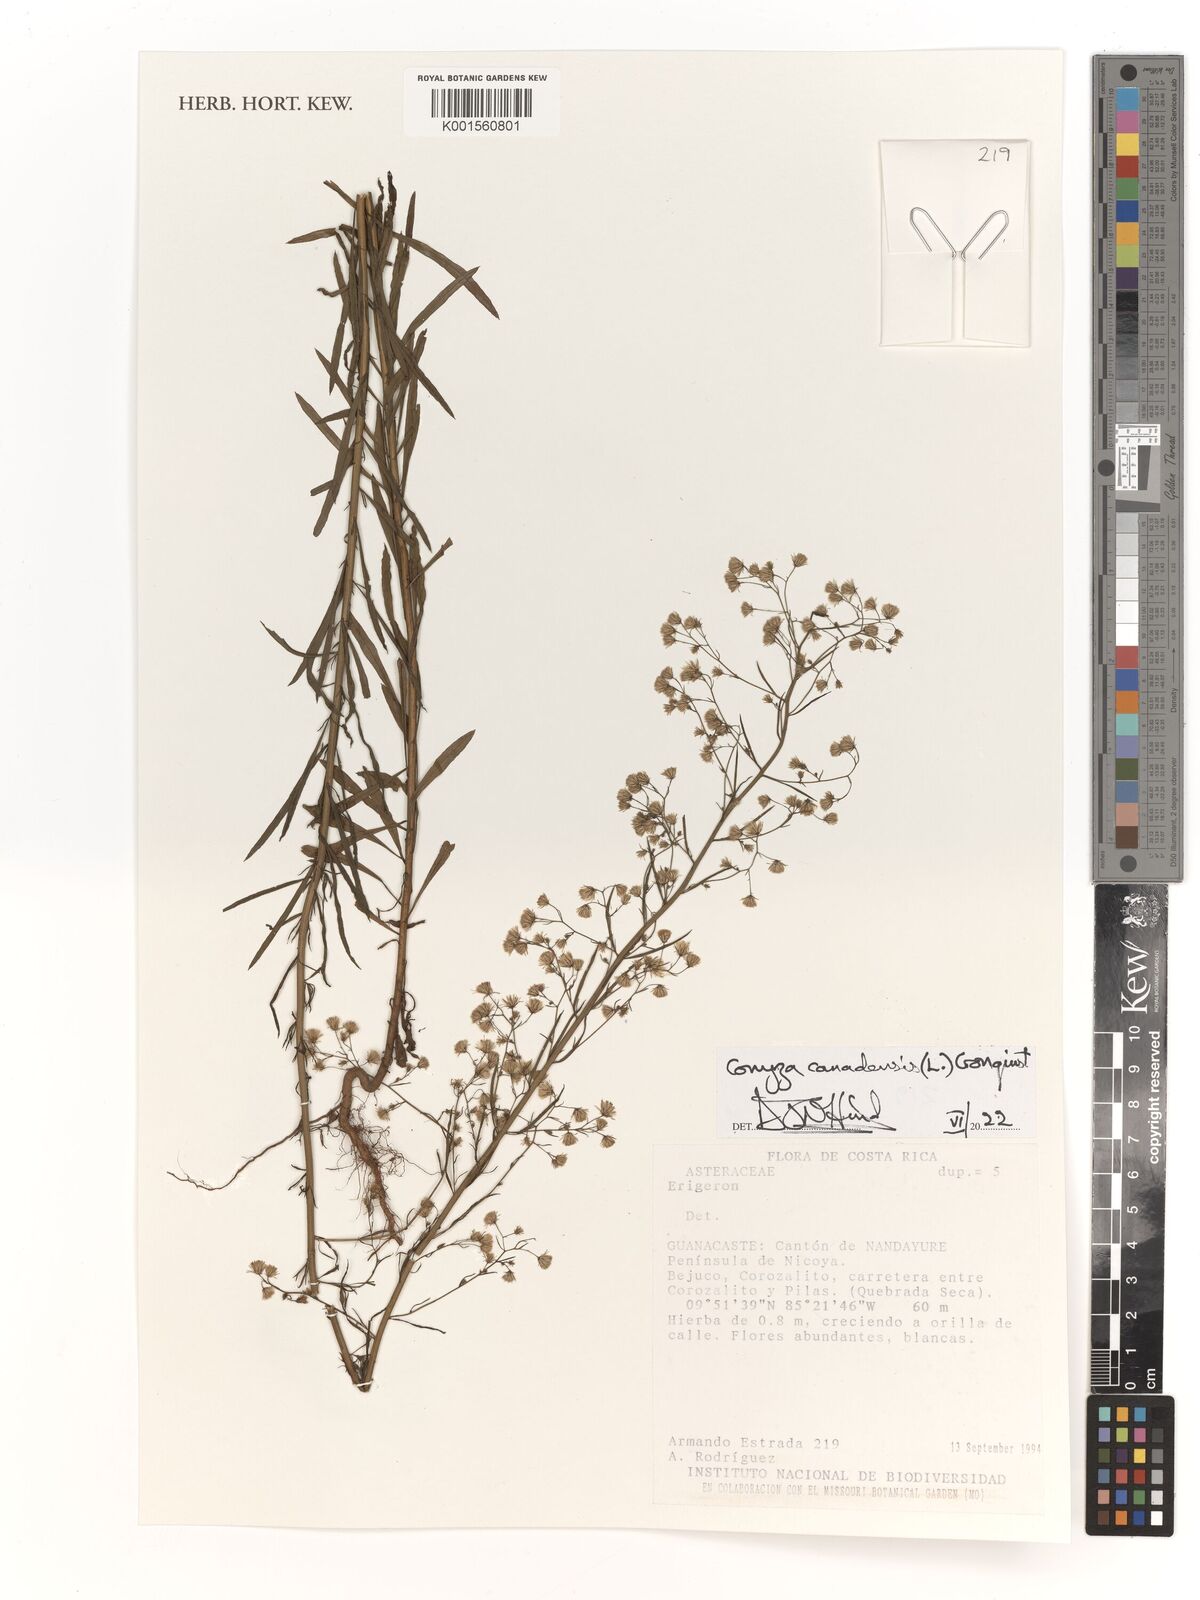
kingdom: Plantae
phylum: Tracheophyta
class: Magnoliopsida
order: Asterales
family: Asteraceae
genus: Erigeron
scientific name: Erigeron canadensis
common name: Canadian fleabane
